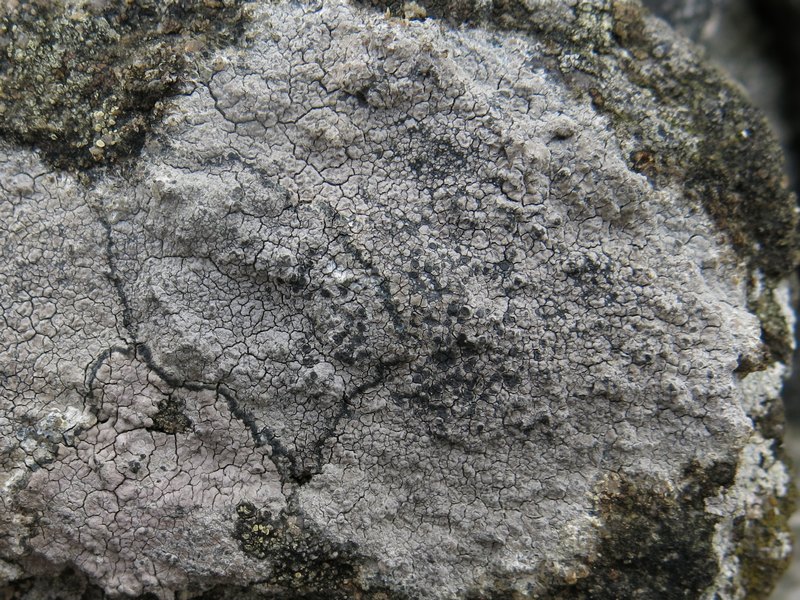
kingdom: Fungi
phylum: Ascomycota
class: Lecanoromycetes
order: Lecideales
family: Lecideaceae
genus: Lecidea
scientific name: Lecidea grisella
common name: grå skivelav
